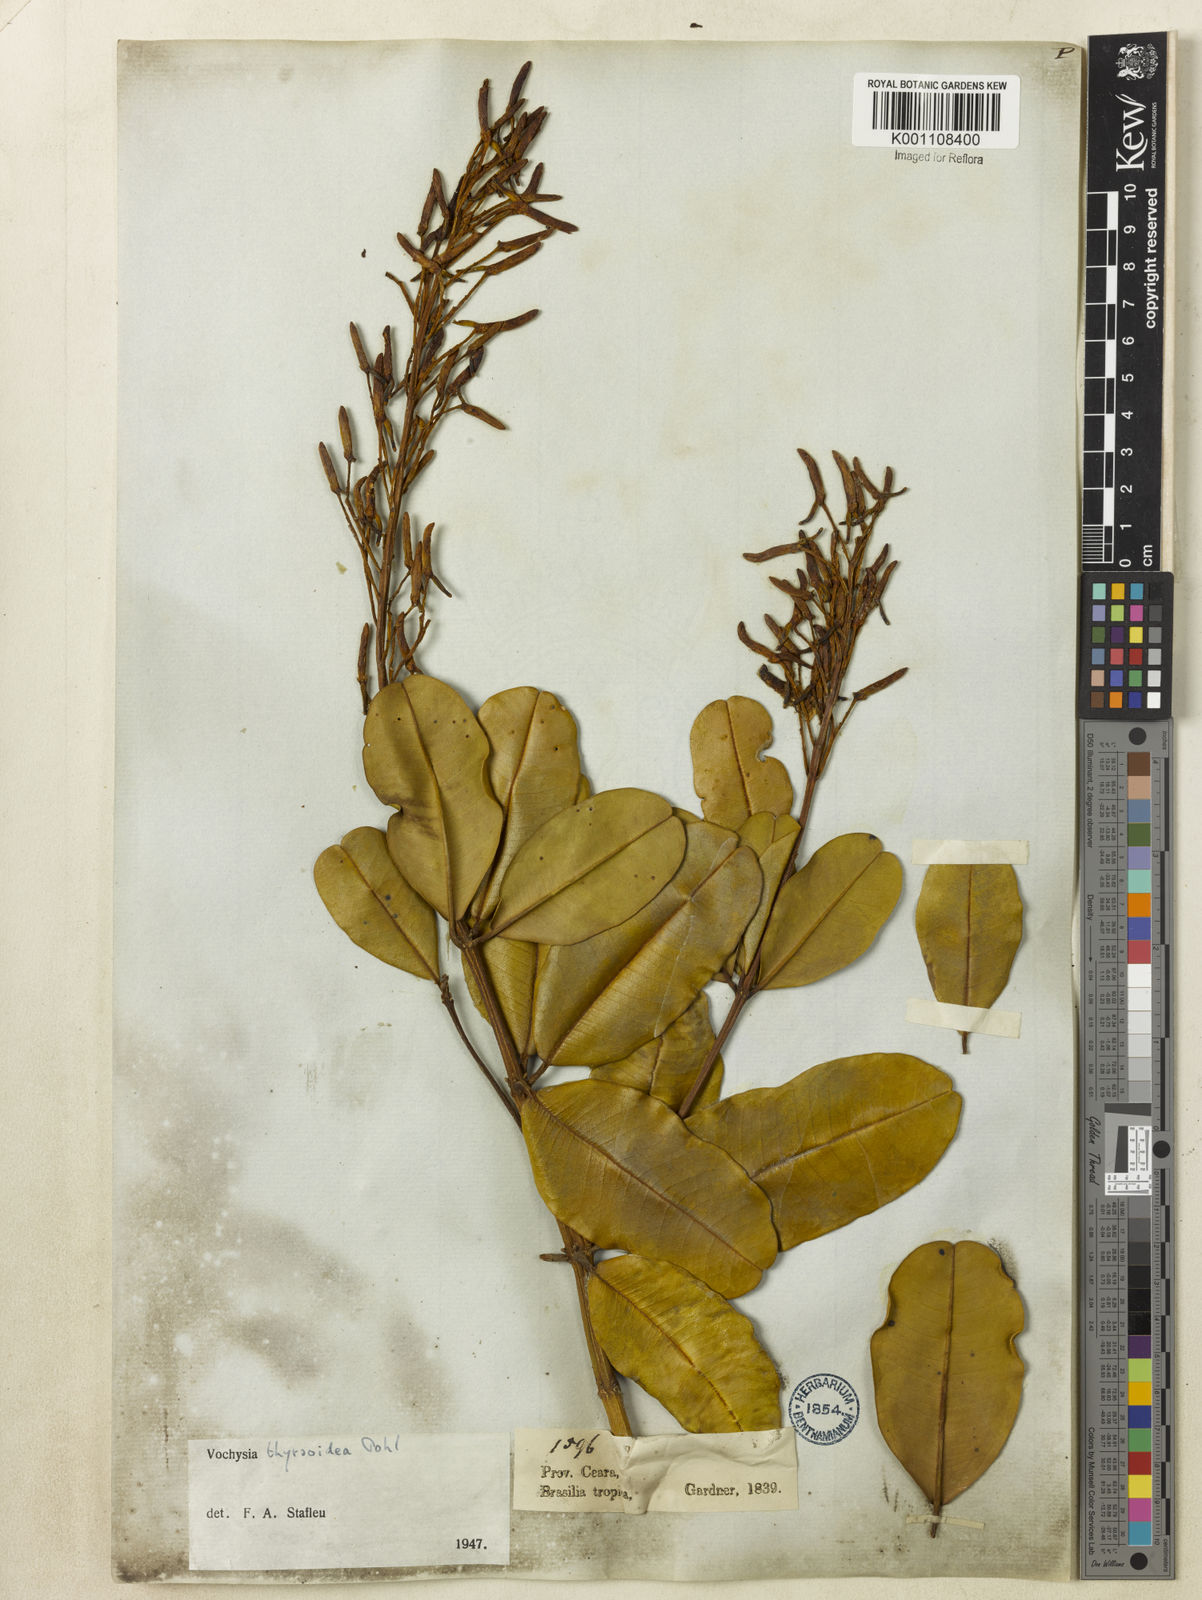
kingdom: Plantae
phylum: Tracheophyta
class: Magnoliopsida
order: Myrtales
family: Vochysiaceae
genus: Vochysia
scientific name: Vochysia thyrsoidea
